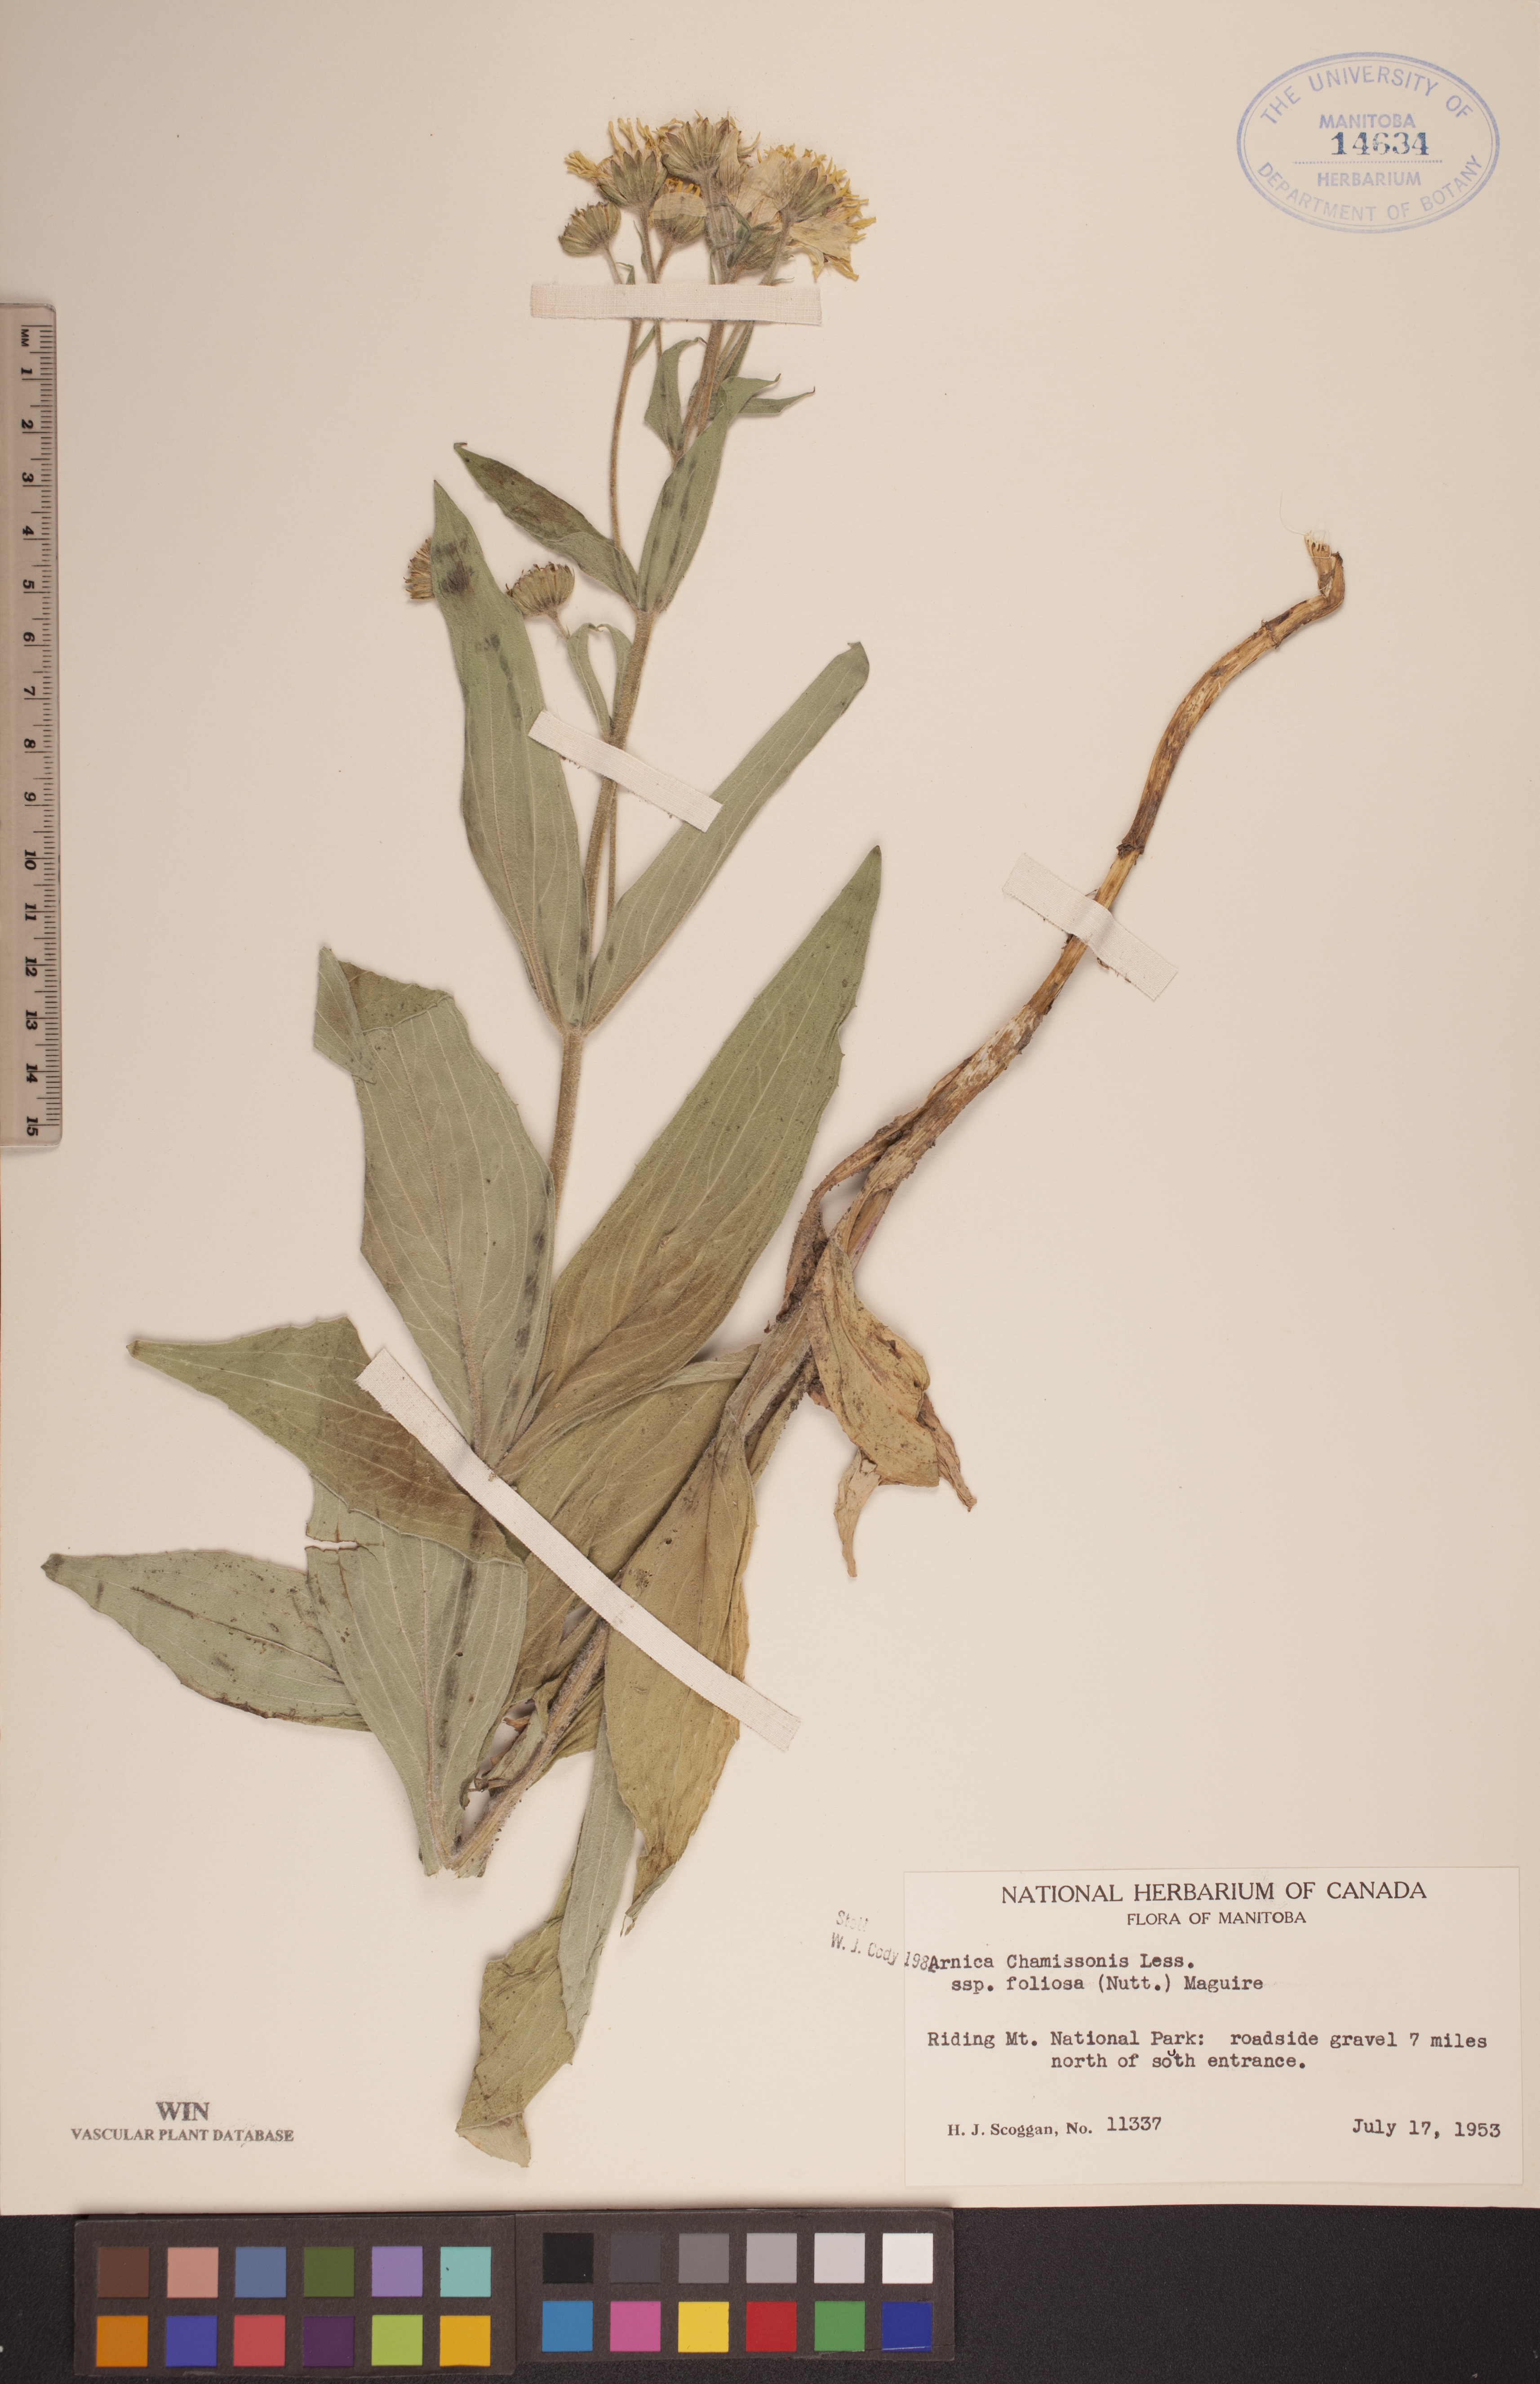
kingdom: Plantae
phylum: Tracheophyta
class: Magnoliopsida
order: Asterales
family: Asteraceae
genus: Arnica
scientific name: Arnica chamissonis
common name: Leafy arnica
